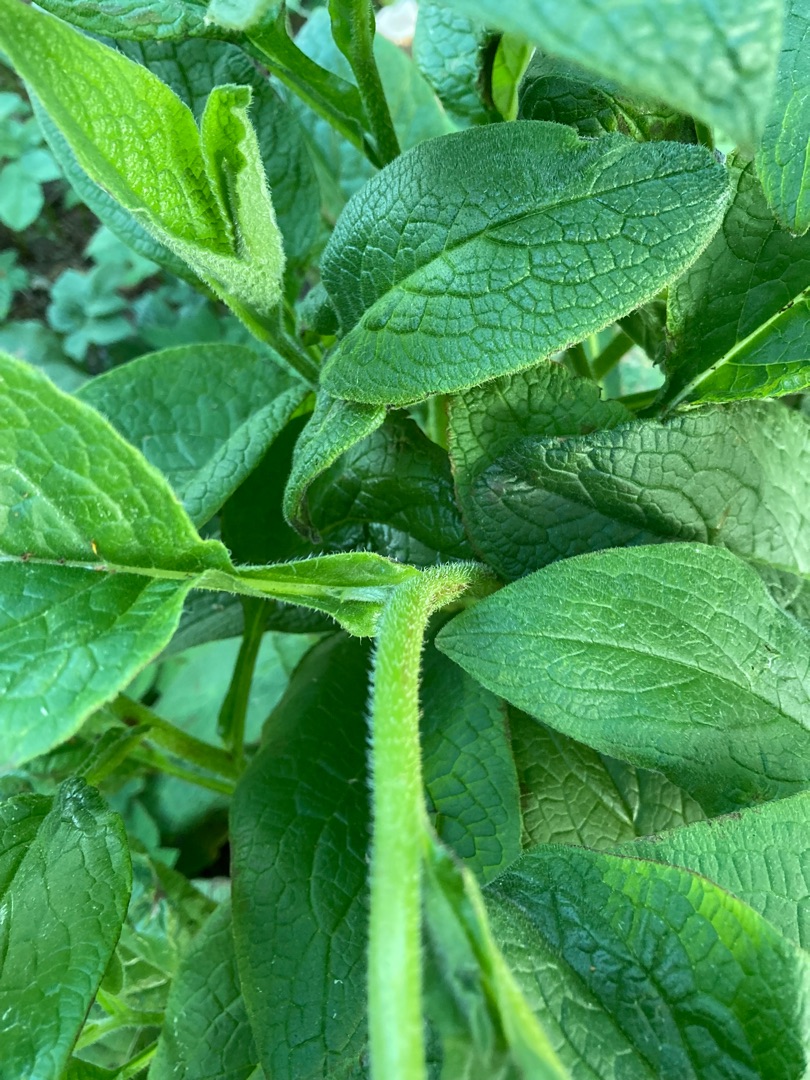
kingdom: Plantae
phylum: Tracheophyta
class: Magnoliopsida
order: Boraginales
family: Boraginaceae
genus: Symphytum
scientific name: Symphytum uplandicum
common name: Foder-kulsukker
